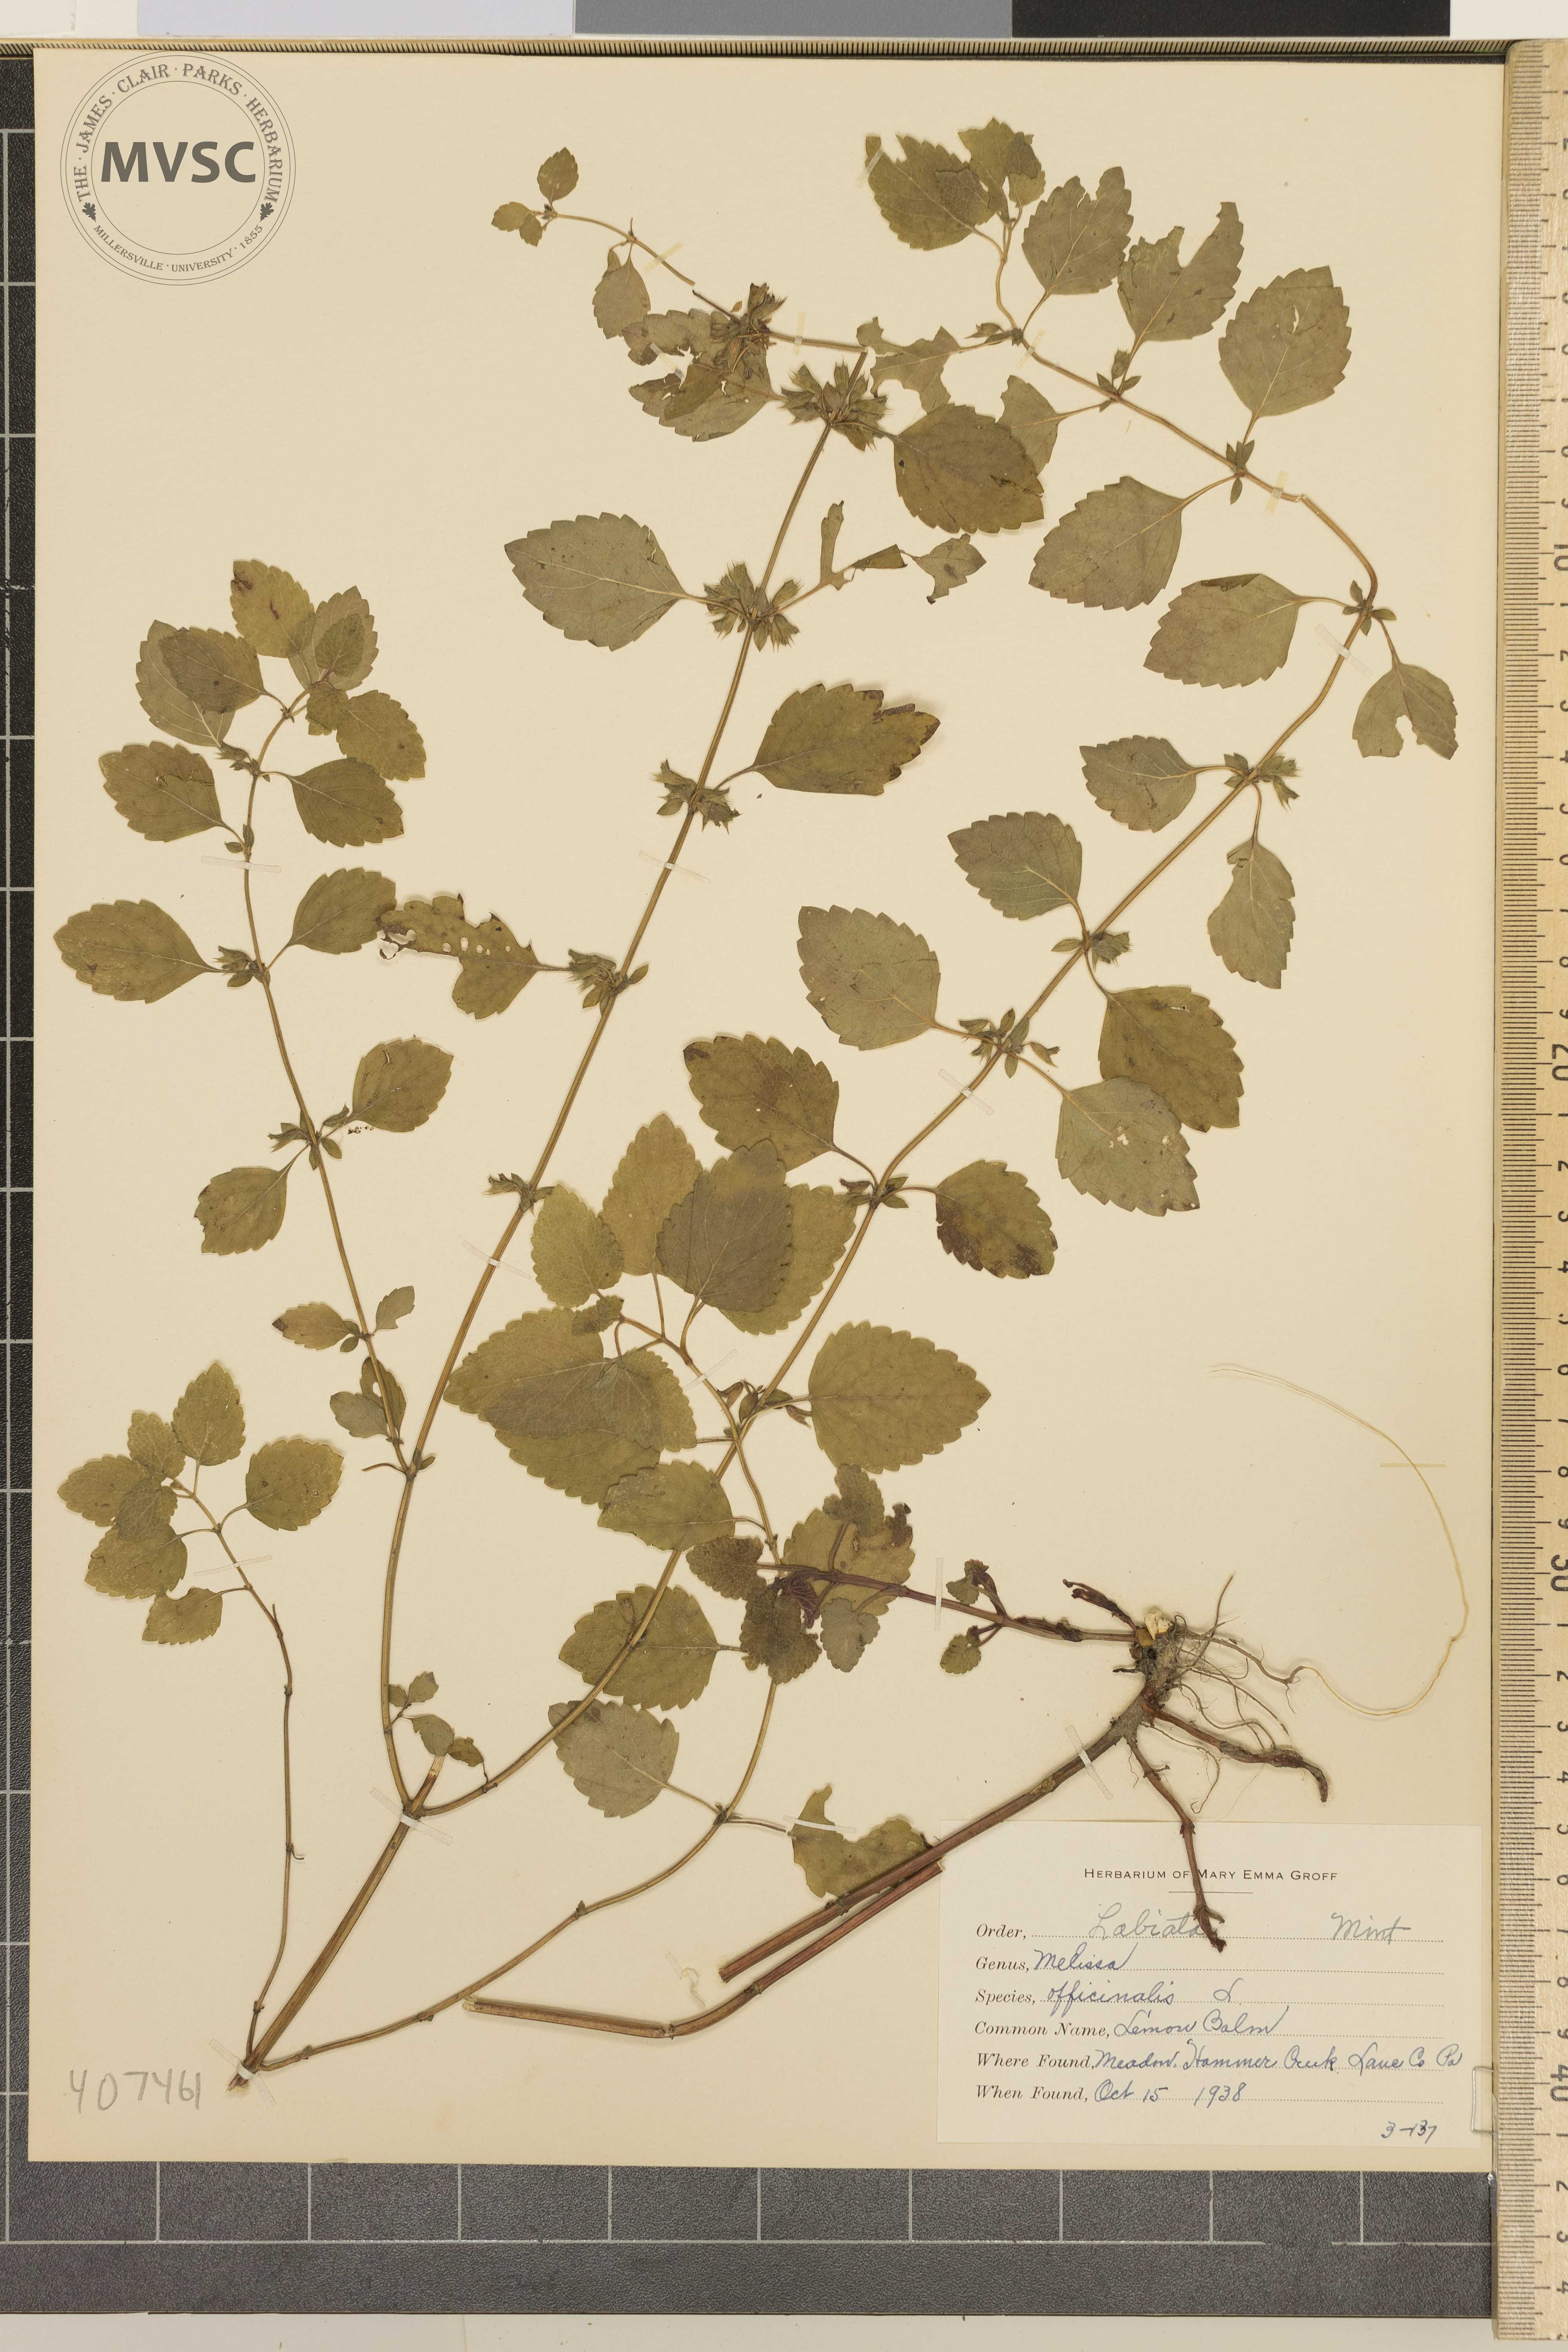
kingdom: Plantae
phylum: Tracheophyta
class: Magnoliopsida
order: Lamiales
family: Lamiaceae
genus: Melissa
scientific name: Melissa officinalis
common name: Lemon Balm
